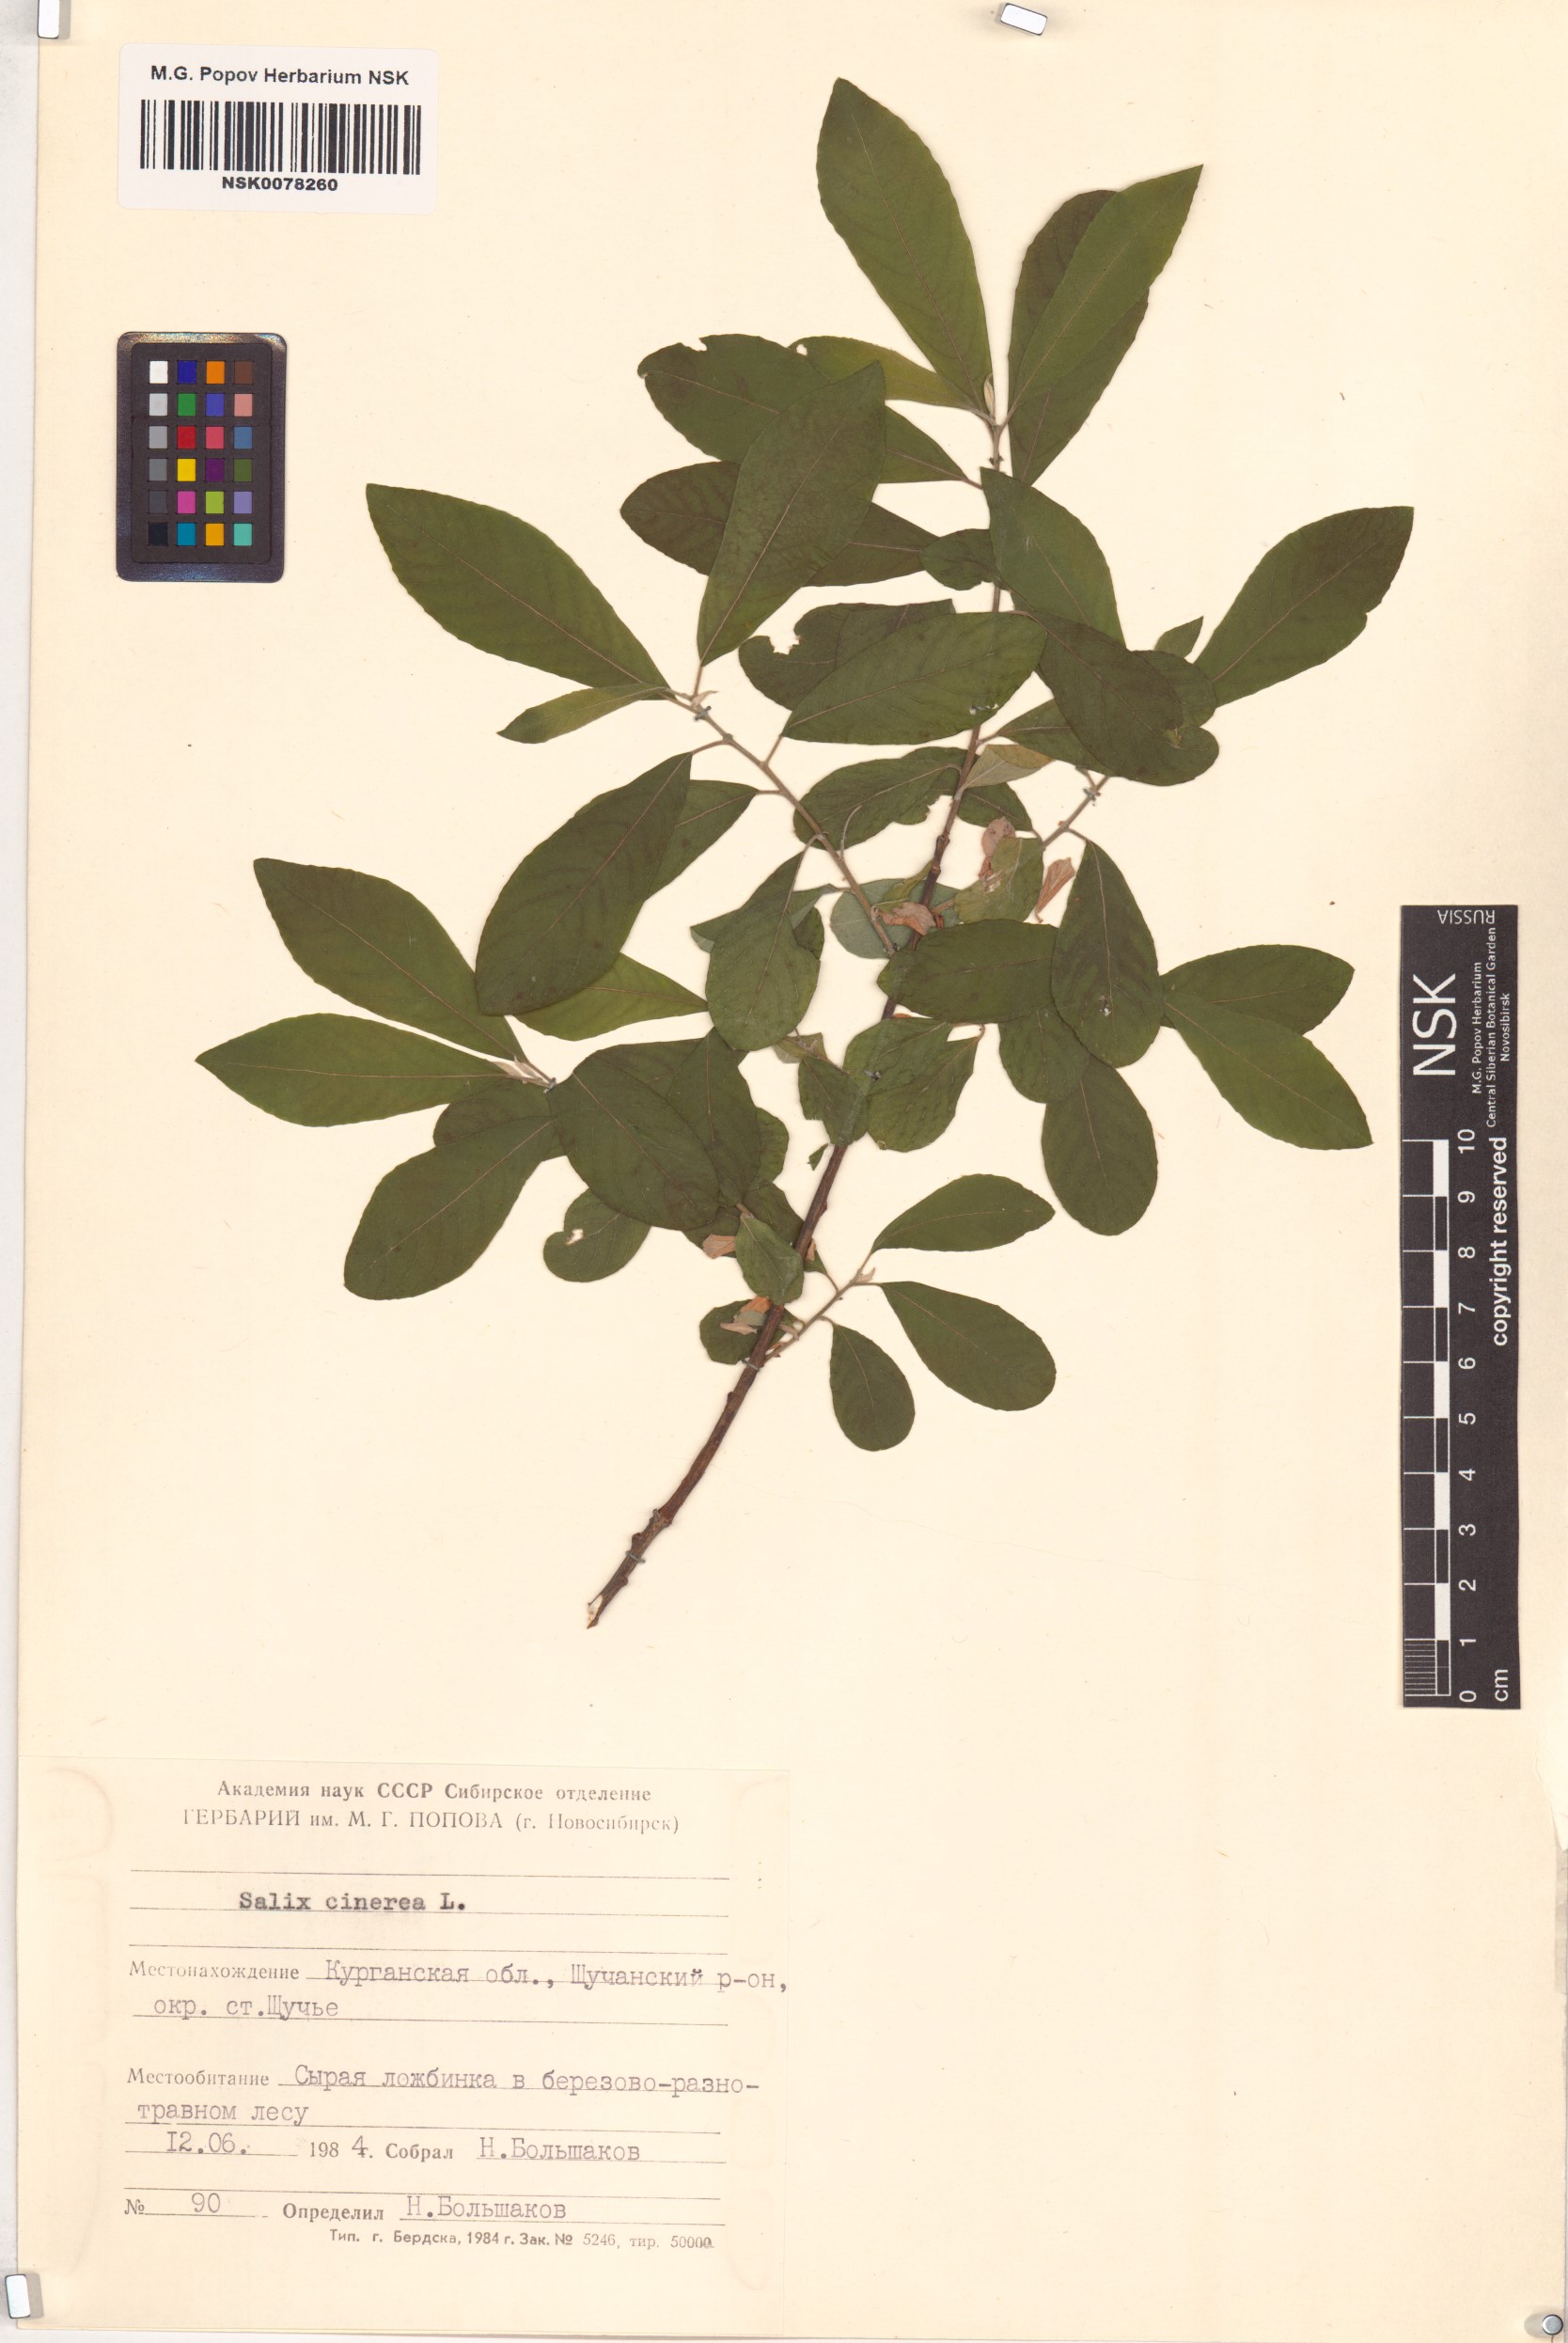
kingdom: Plantae
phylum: Tracheophyta
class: Magnoliopsida
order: Malpighiales
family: Salicaceae
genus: Salix
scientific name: Salix cinerea
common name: Common sallow
